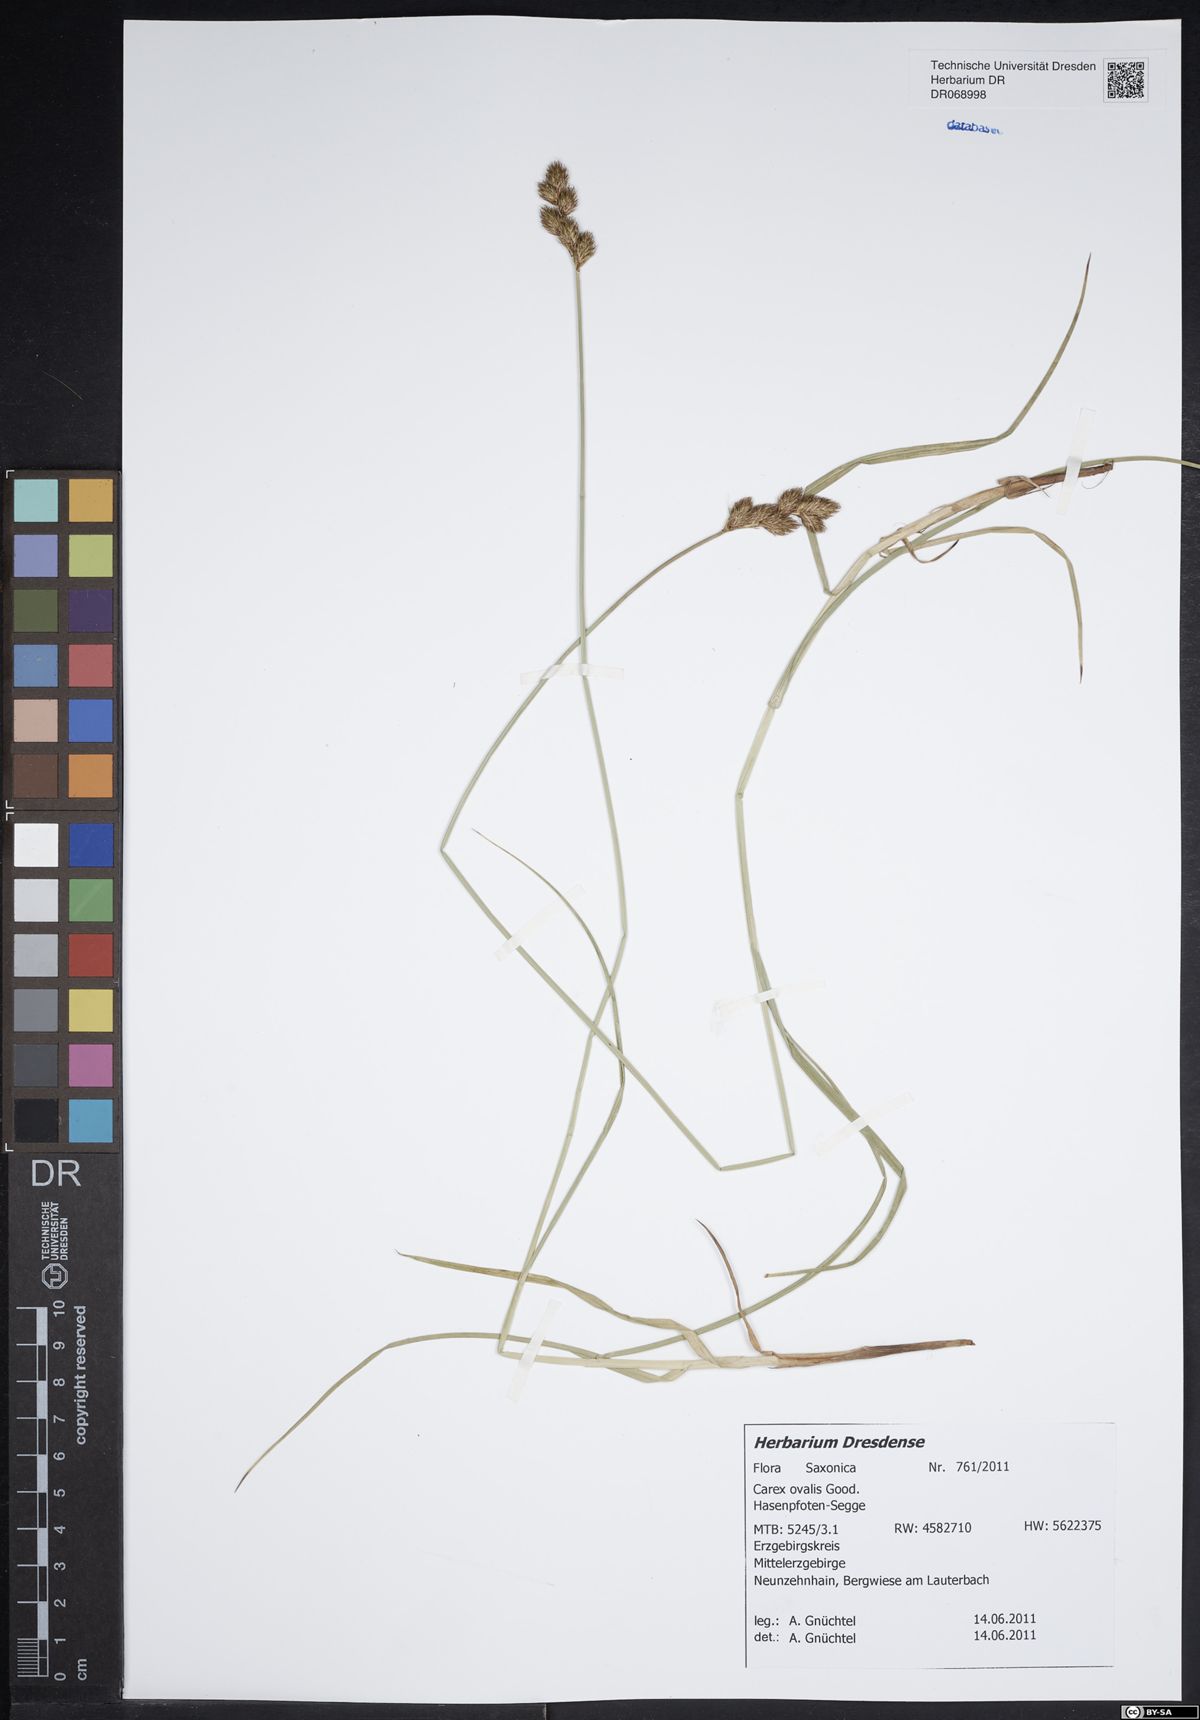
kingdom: Plantae
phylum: Tracheophyta
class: Liliopsida
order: Poales
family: Cyperaceae
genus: Carex
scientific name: Carex leporina
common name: Oval sedge
